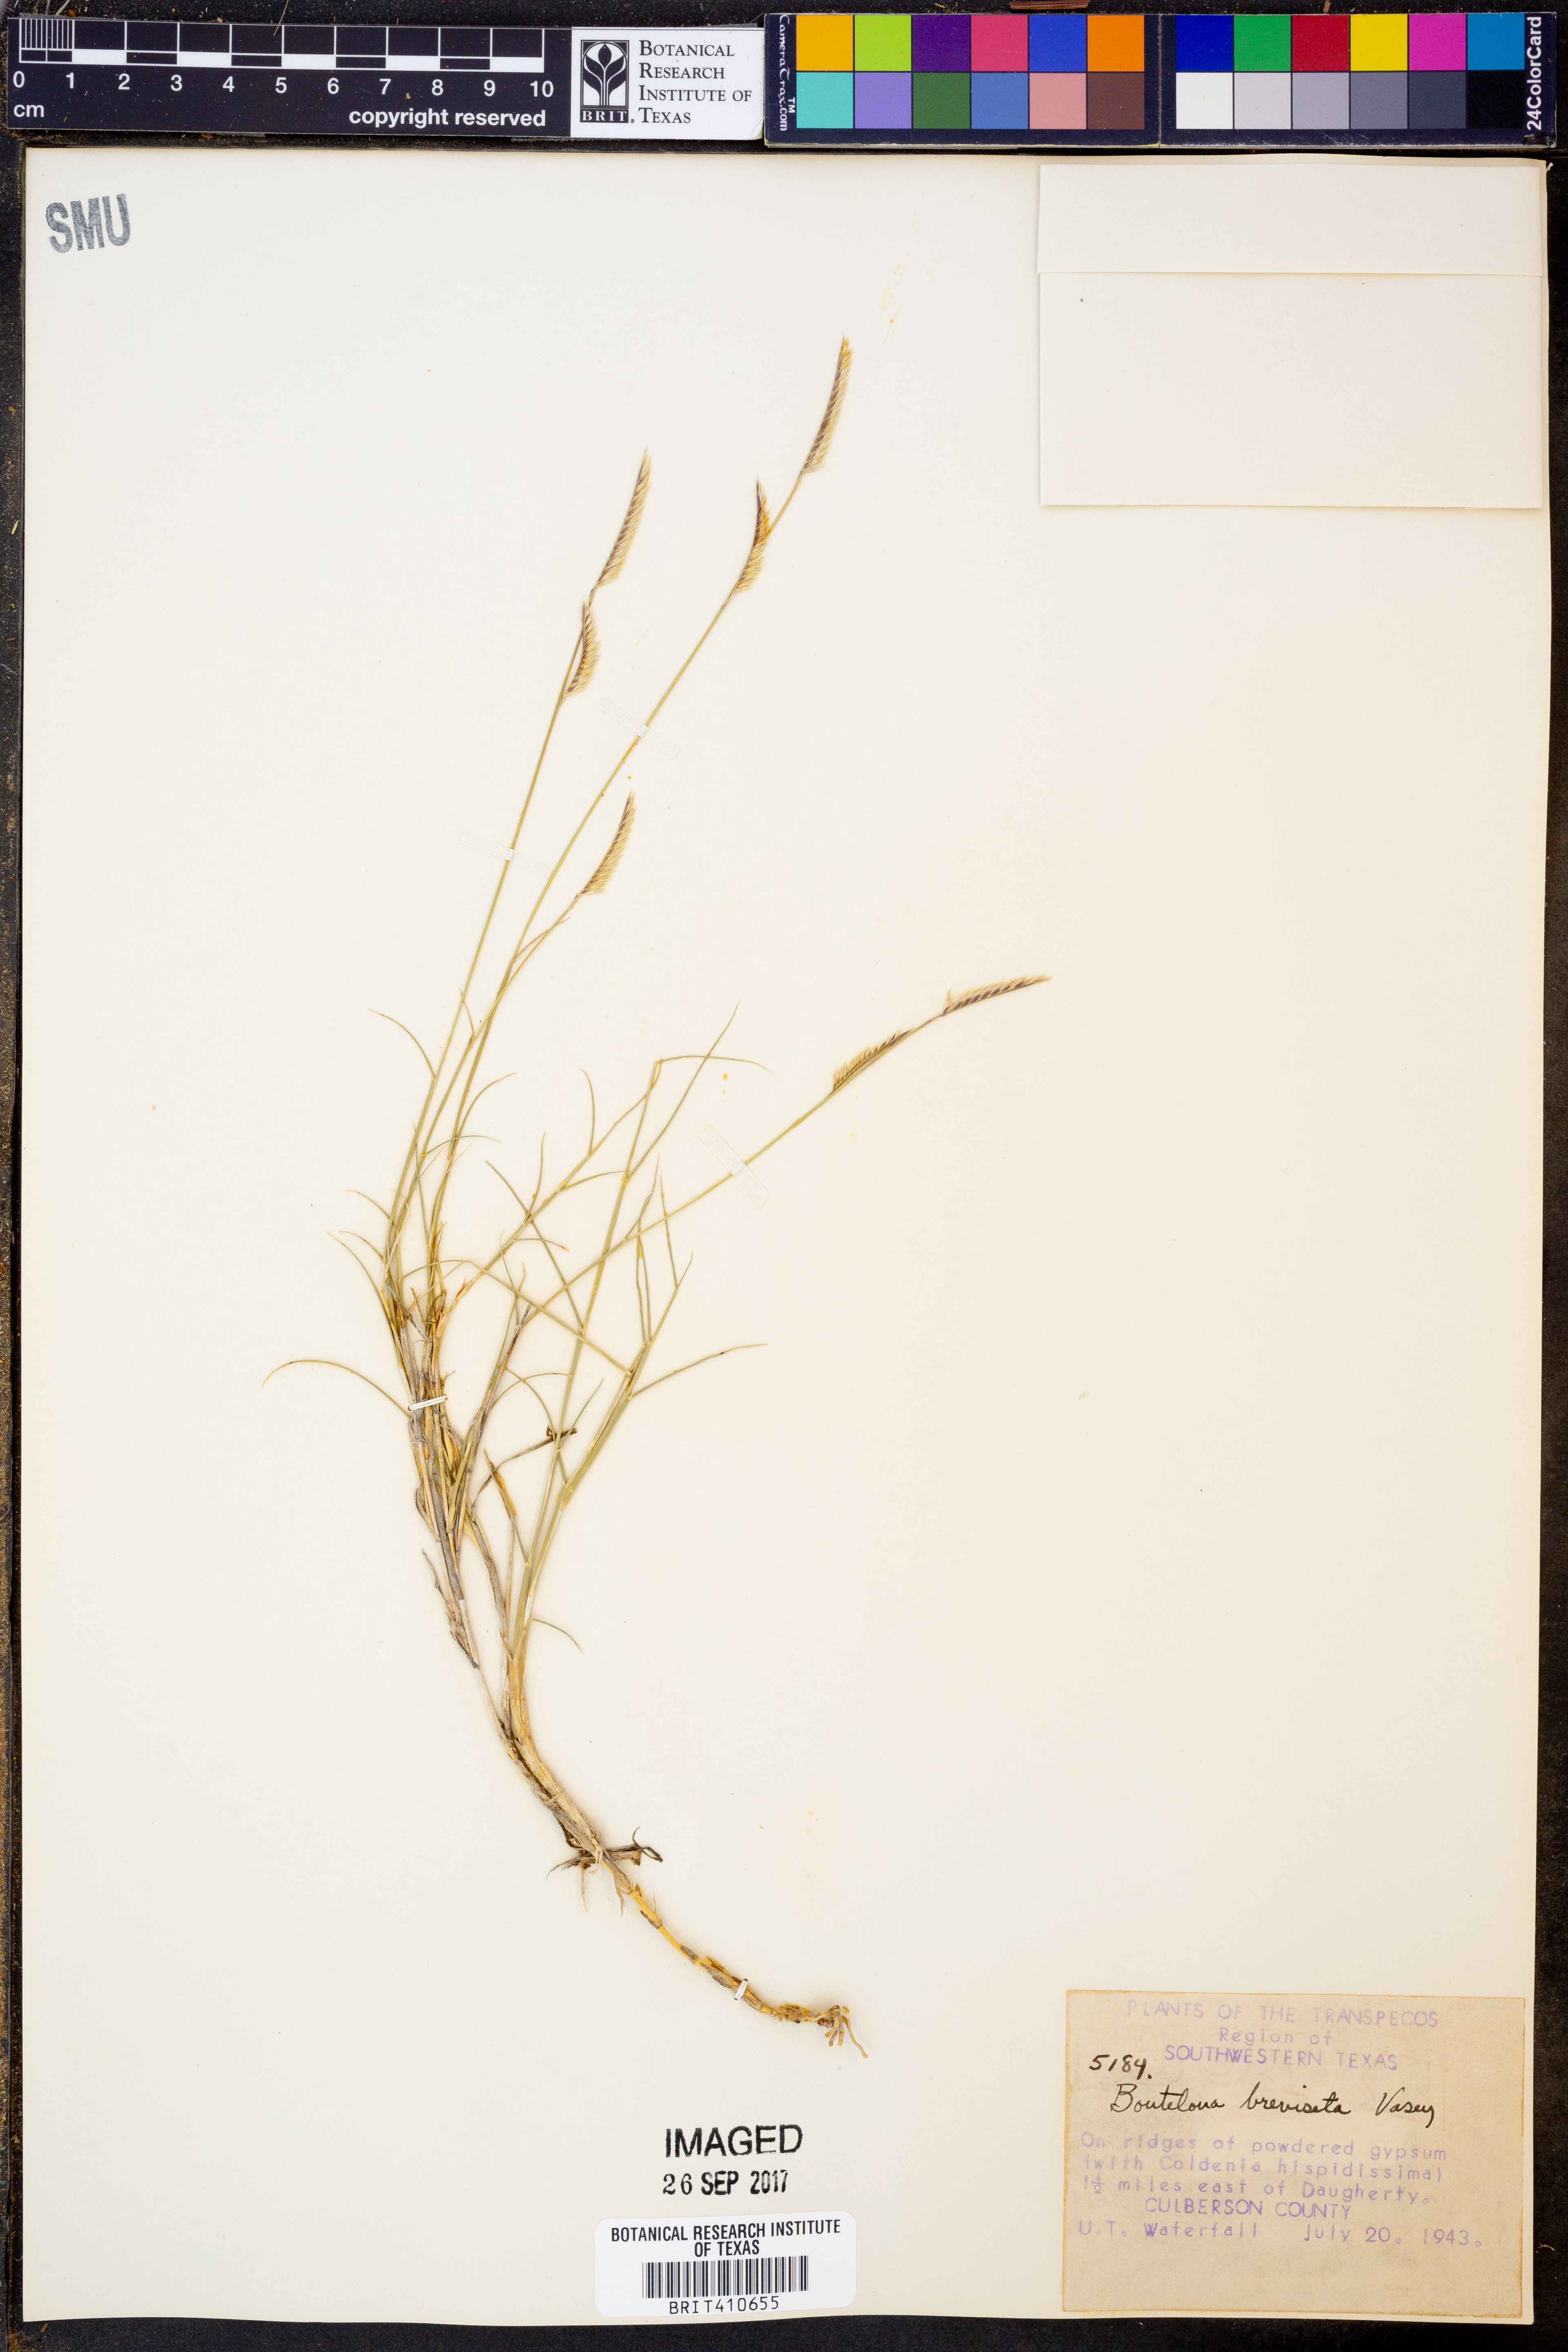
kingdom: Plantae
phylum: Tracheophyta
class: Liliopsida
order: Poales
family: Poaceae
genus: Bouteloua
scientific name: Bouteloua breviseta
